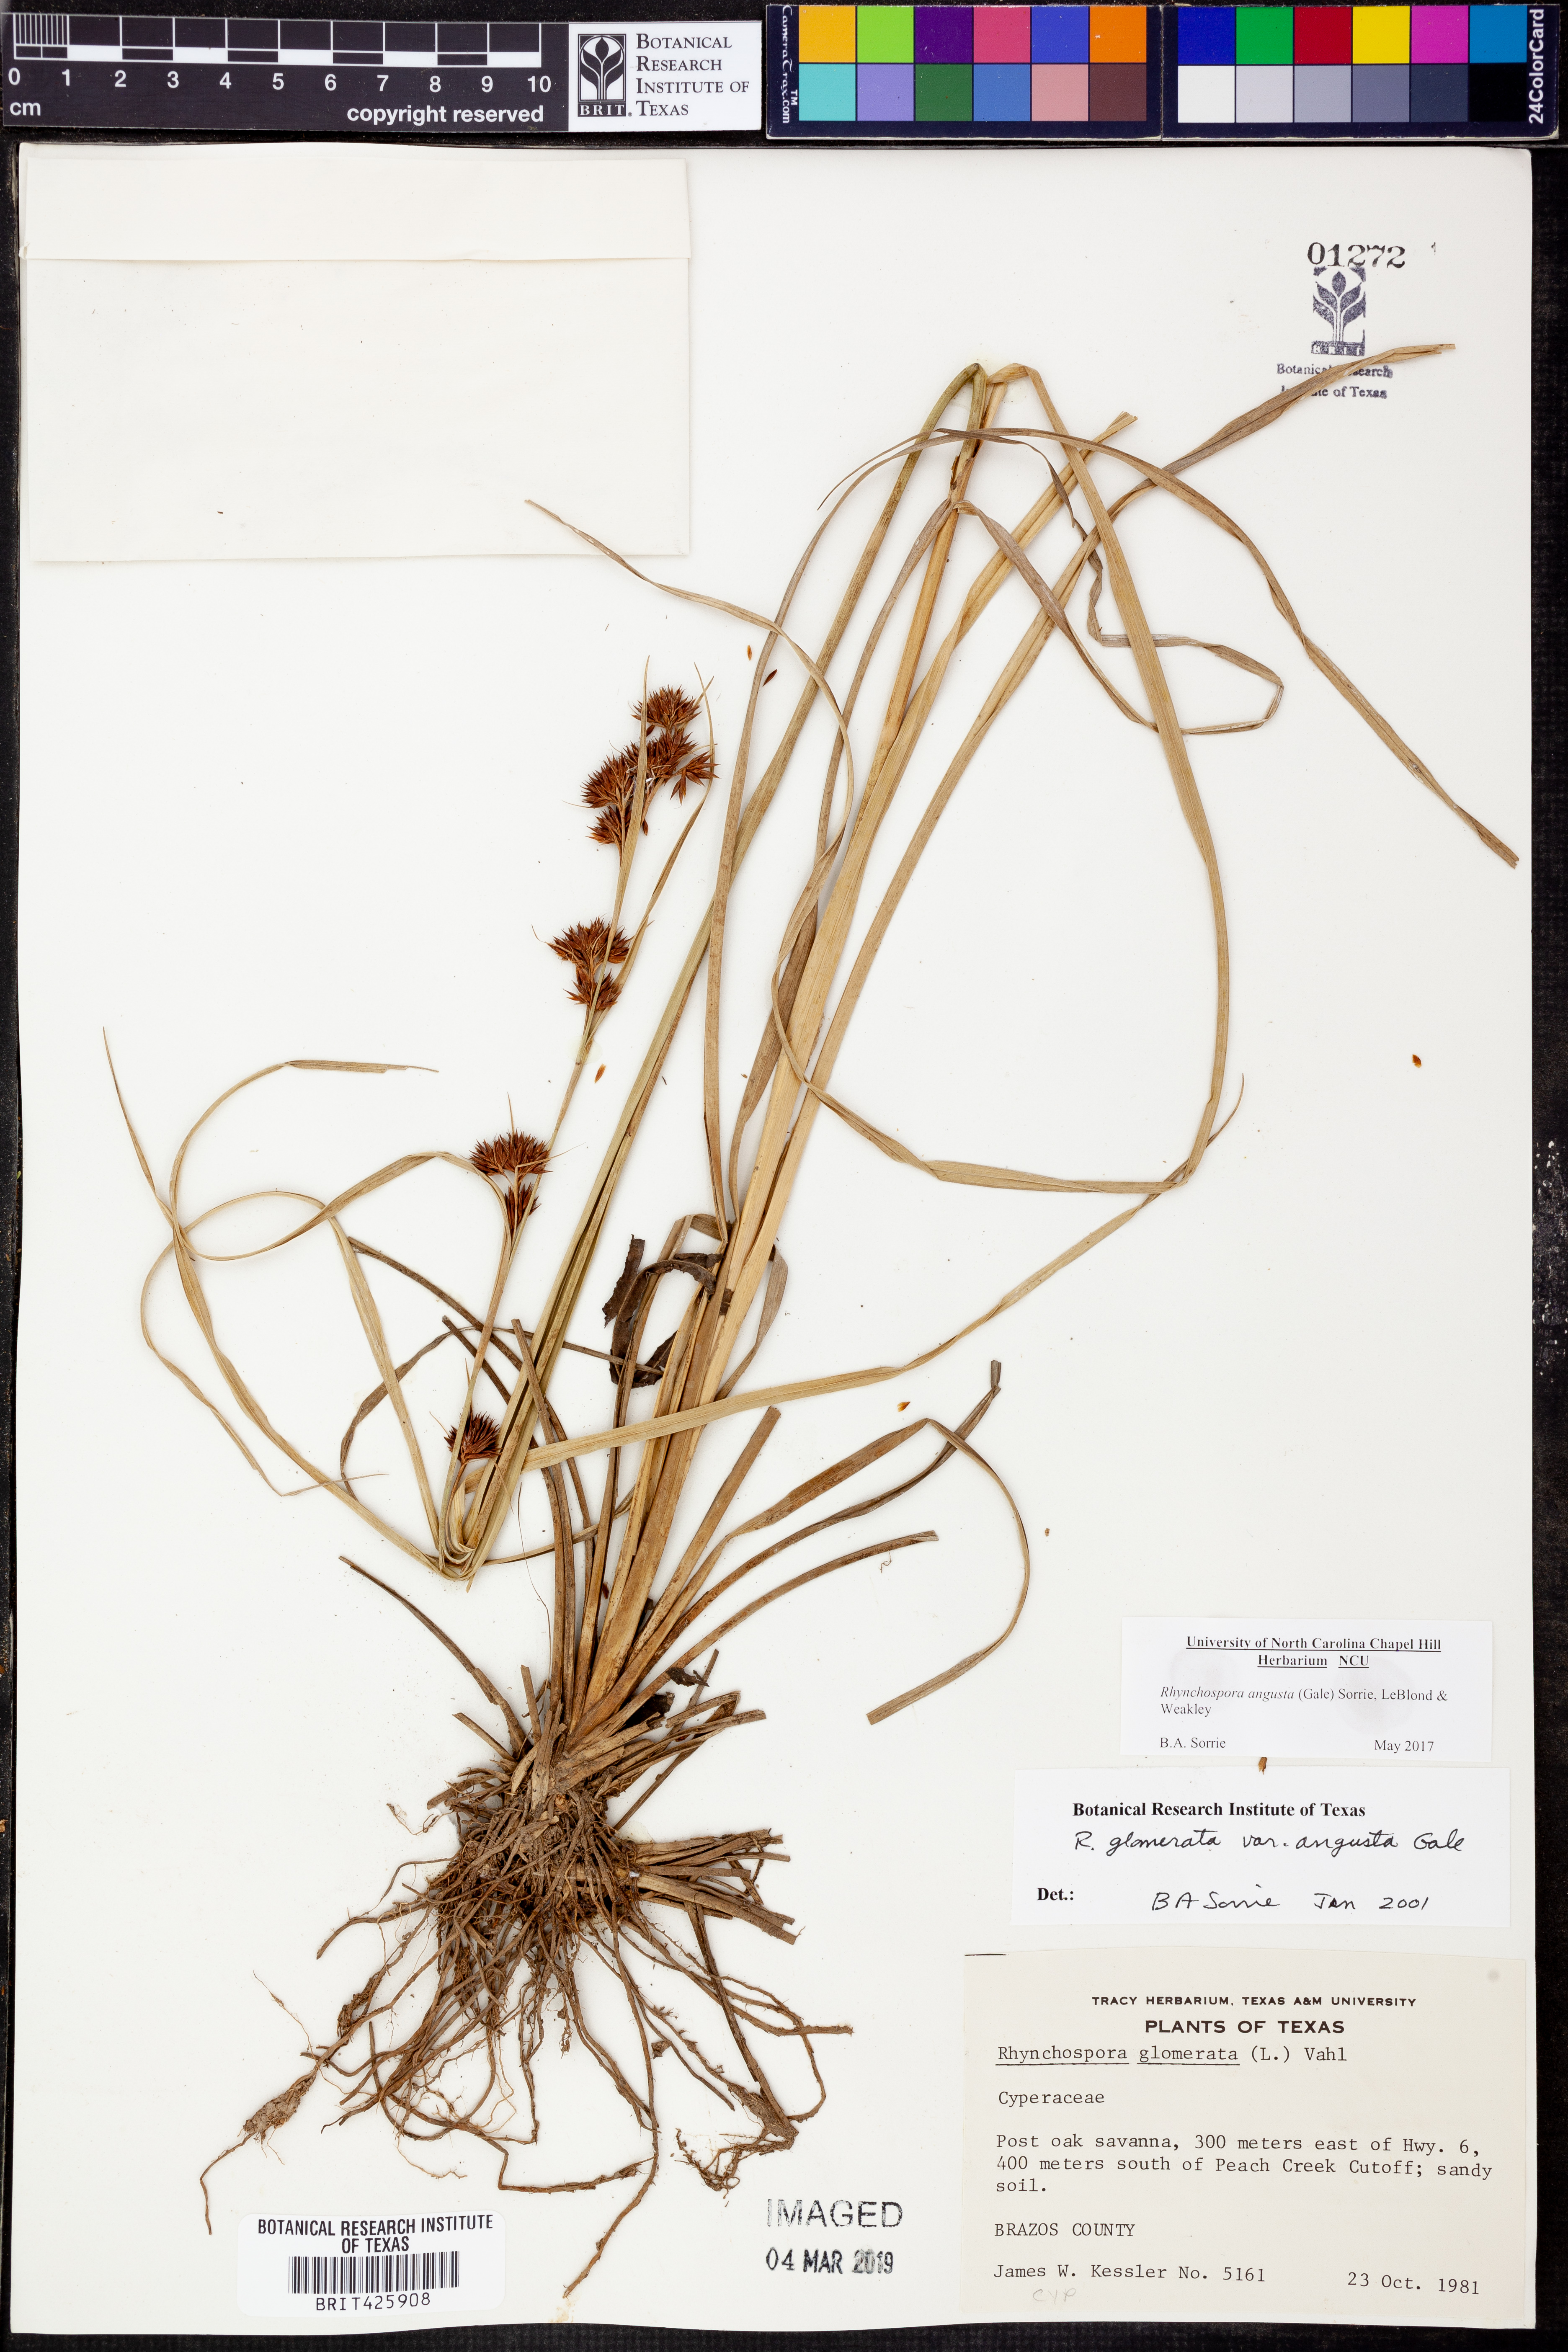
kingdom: Plantae
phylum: Tracheophyta
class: Liliopsida
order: Poales
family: Cyperaceae
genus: Rhynchospora
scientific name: Rhynchospora angusta
